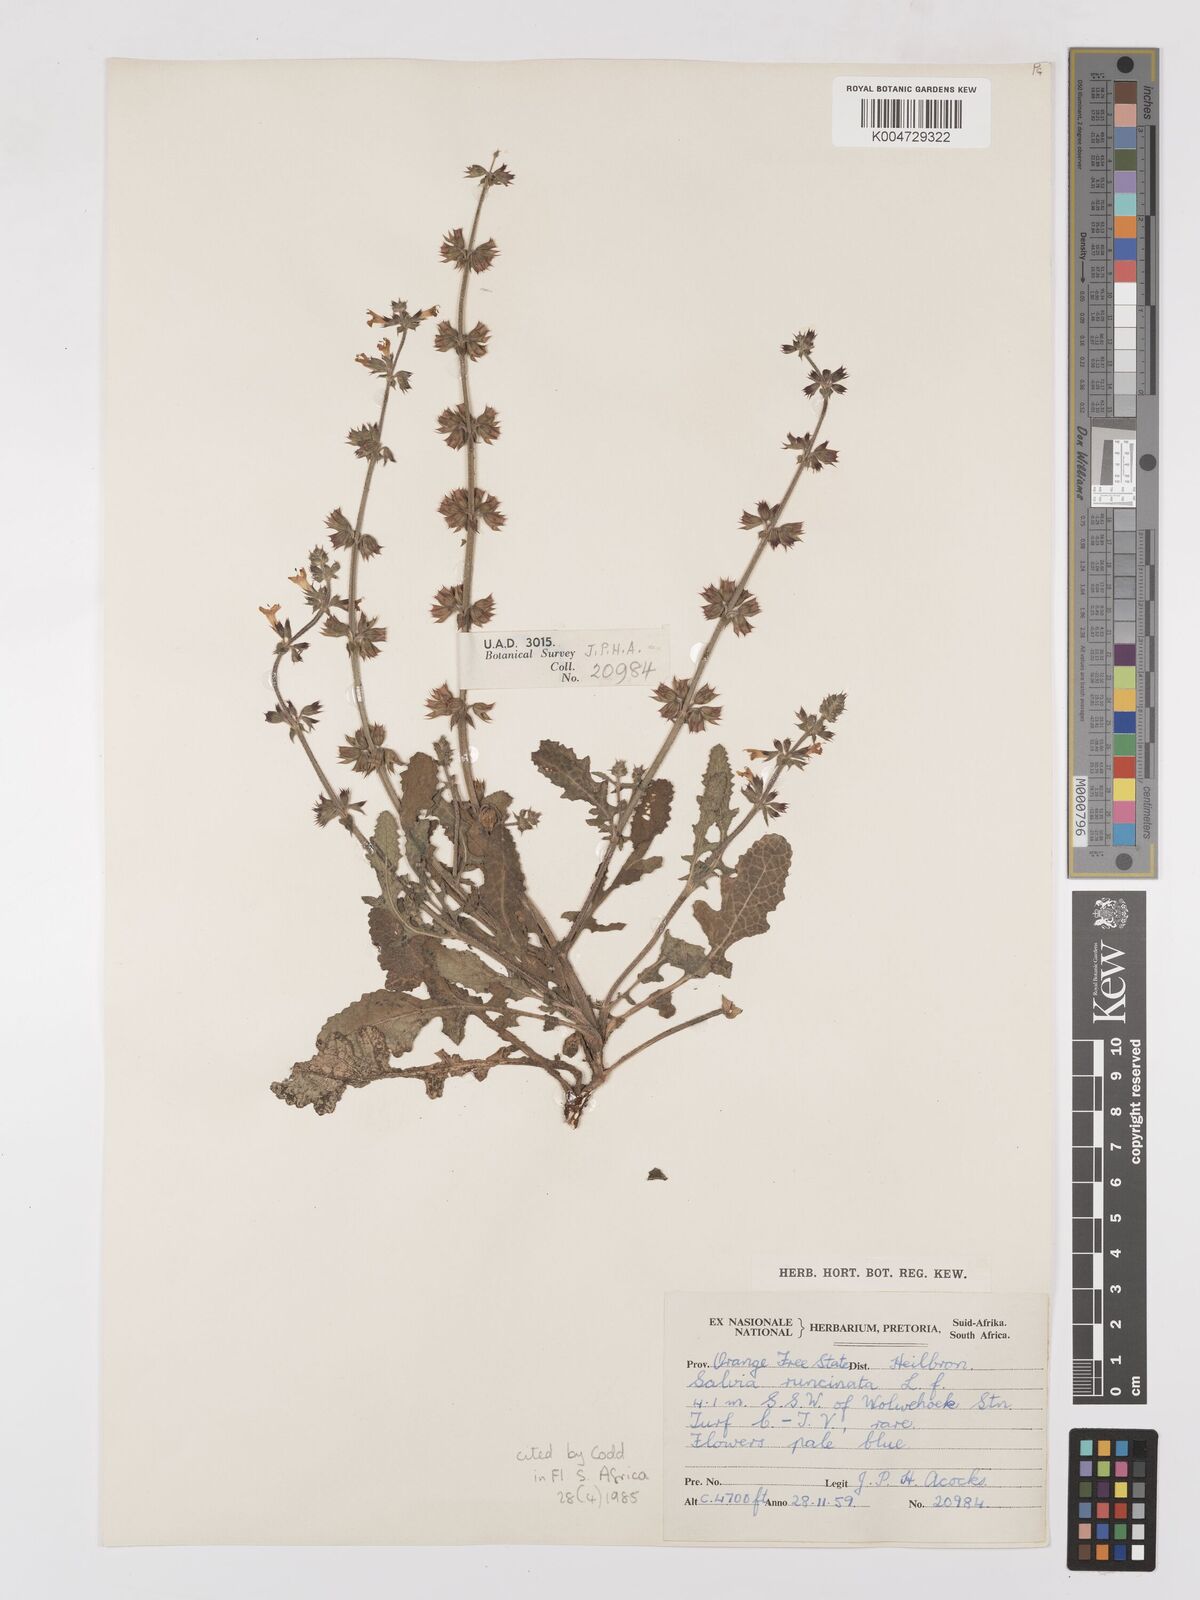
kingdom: Plantae
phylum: Tracheophyta
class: Magnoliopsida
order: Lamiales
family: Lamiaceae
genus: Salvia
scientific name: Salvia runcinata
